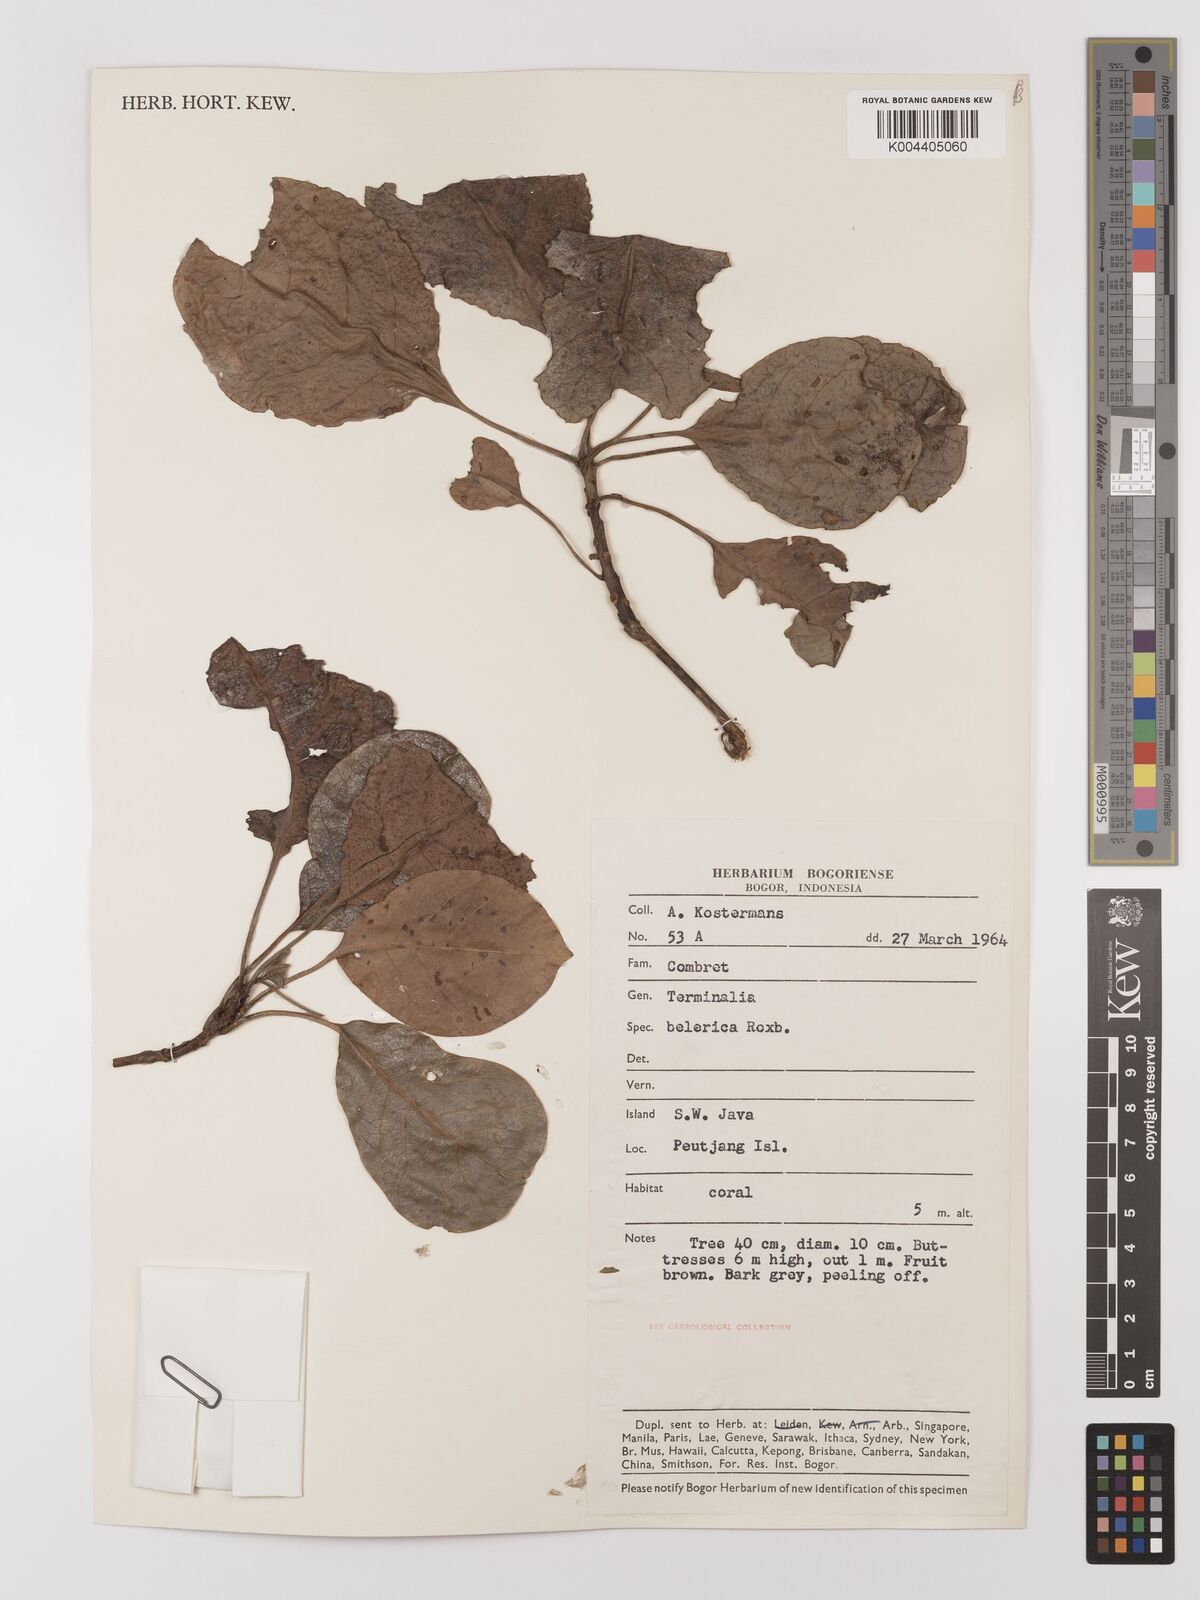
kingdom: Plantae
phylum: Tracheophyta
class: Magnoliopsida
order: Myrtales
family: Combretaceae
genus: Terminalia
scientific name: Terminalia bellirica
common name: Beleric myrobalan
